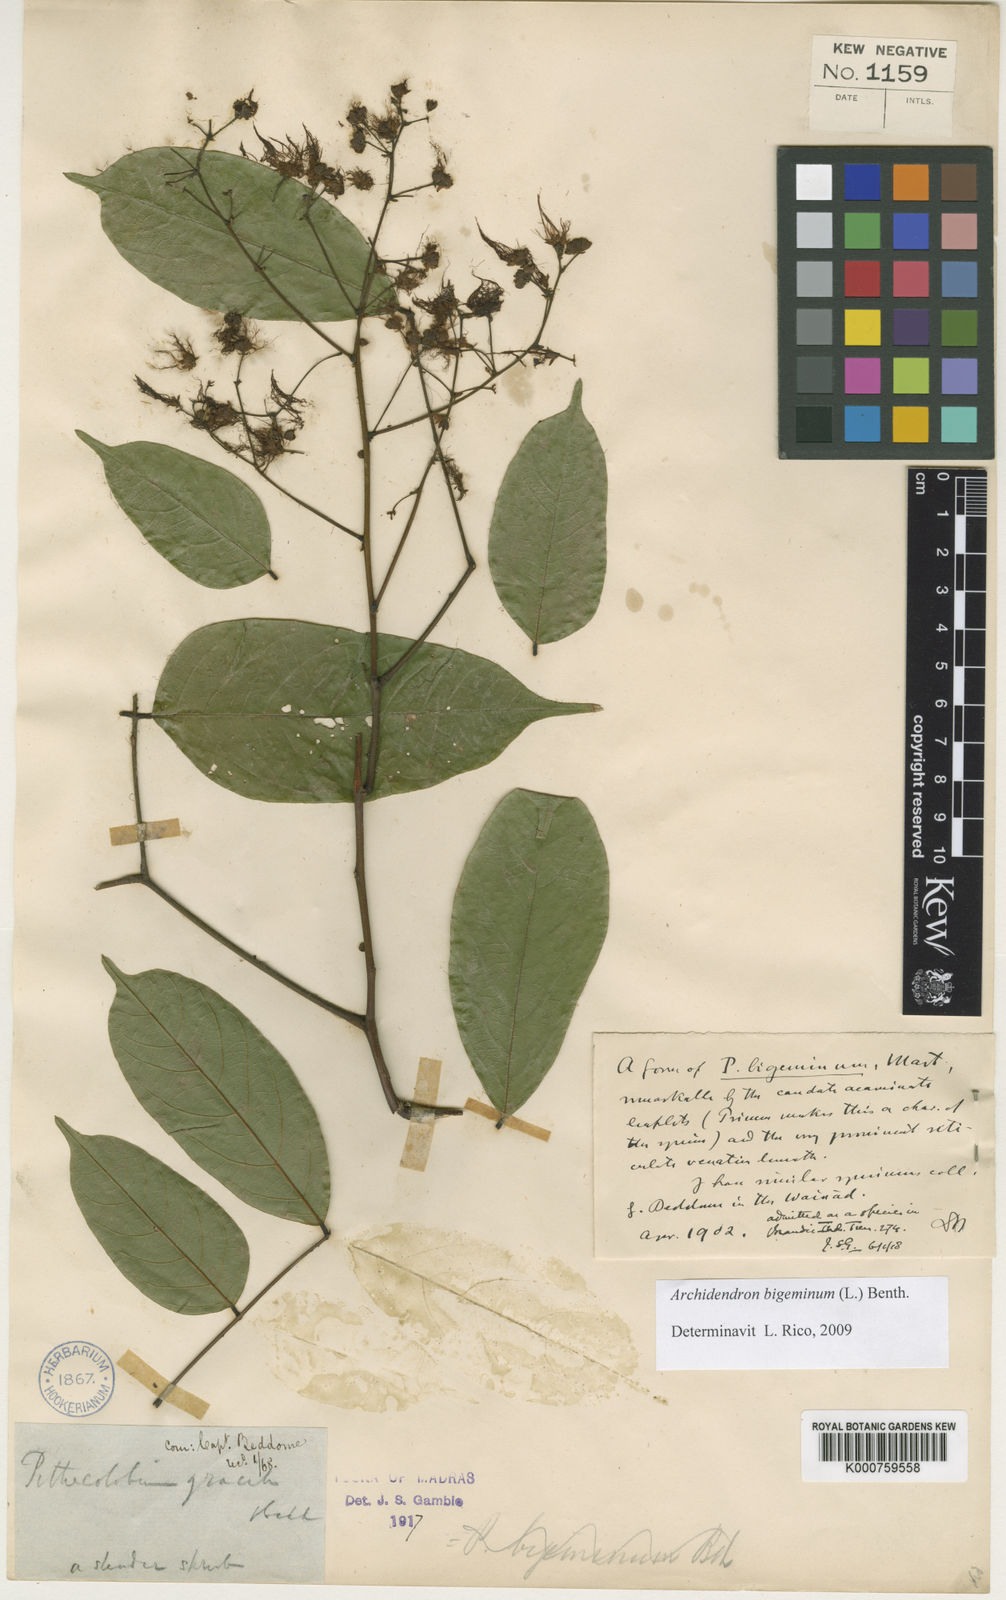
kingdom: Plantae
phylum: Tracheophyta
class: Magnoliopsida
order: Fabales
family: Fabaceae
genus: Archidendron
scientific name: Archidendron
